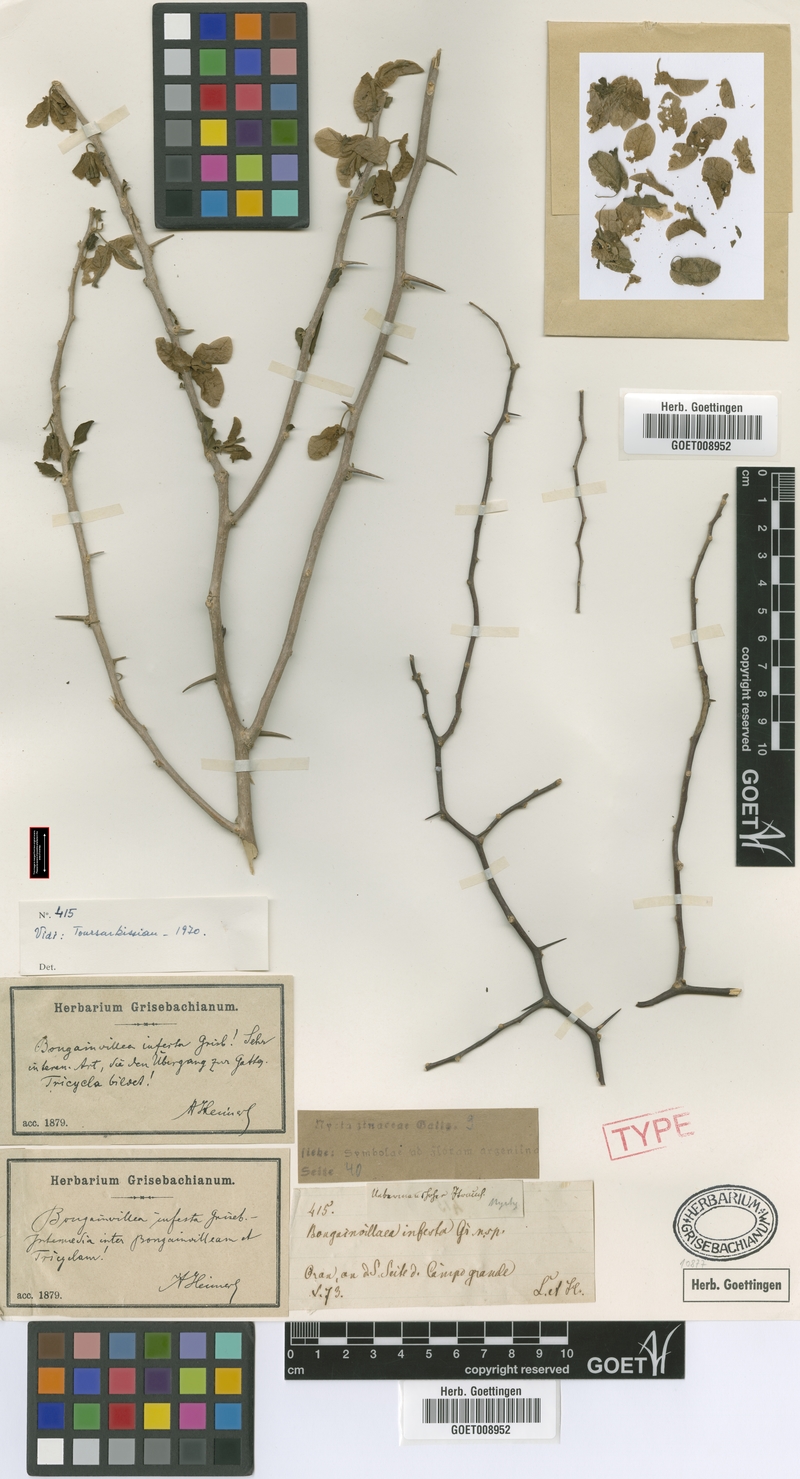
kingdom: Plantae
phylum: Tracheophyta
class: Magnoliopsida
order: Caryophyllales
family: Nyctaginaceae
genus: Bougainvillea
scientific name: Bougainvillea infesta
